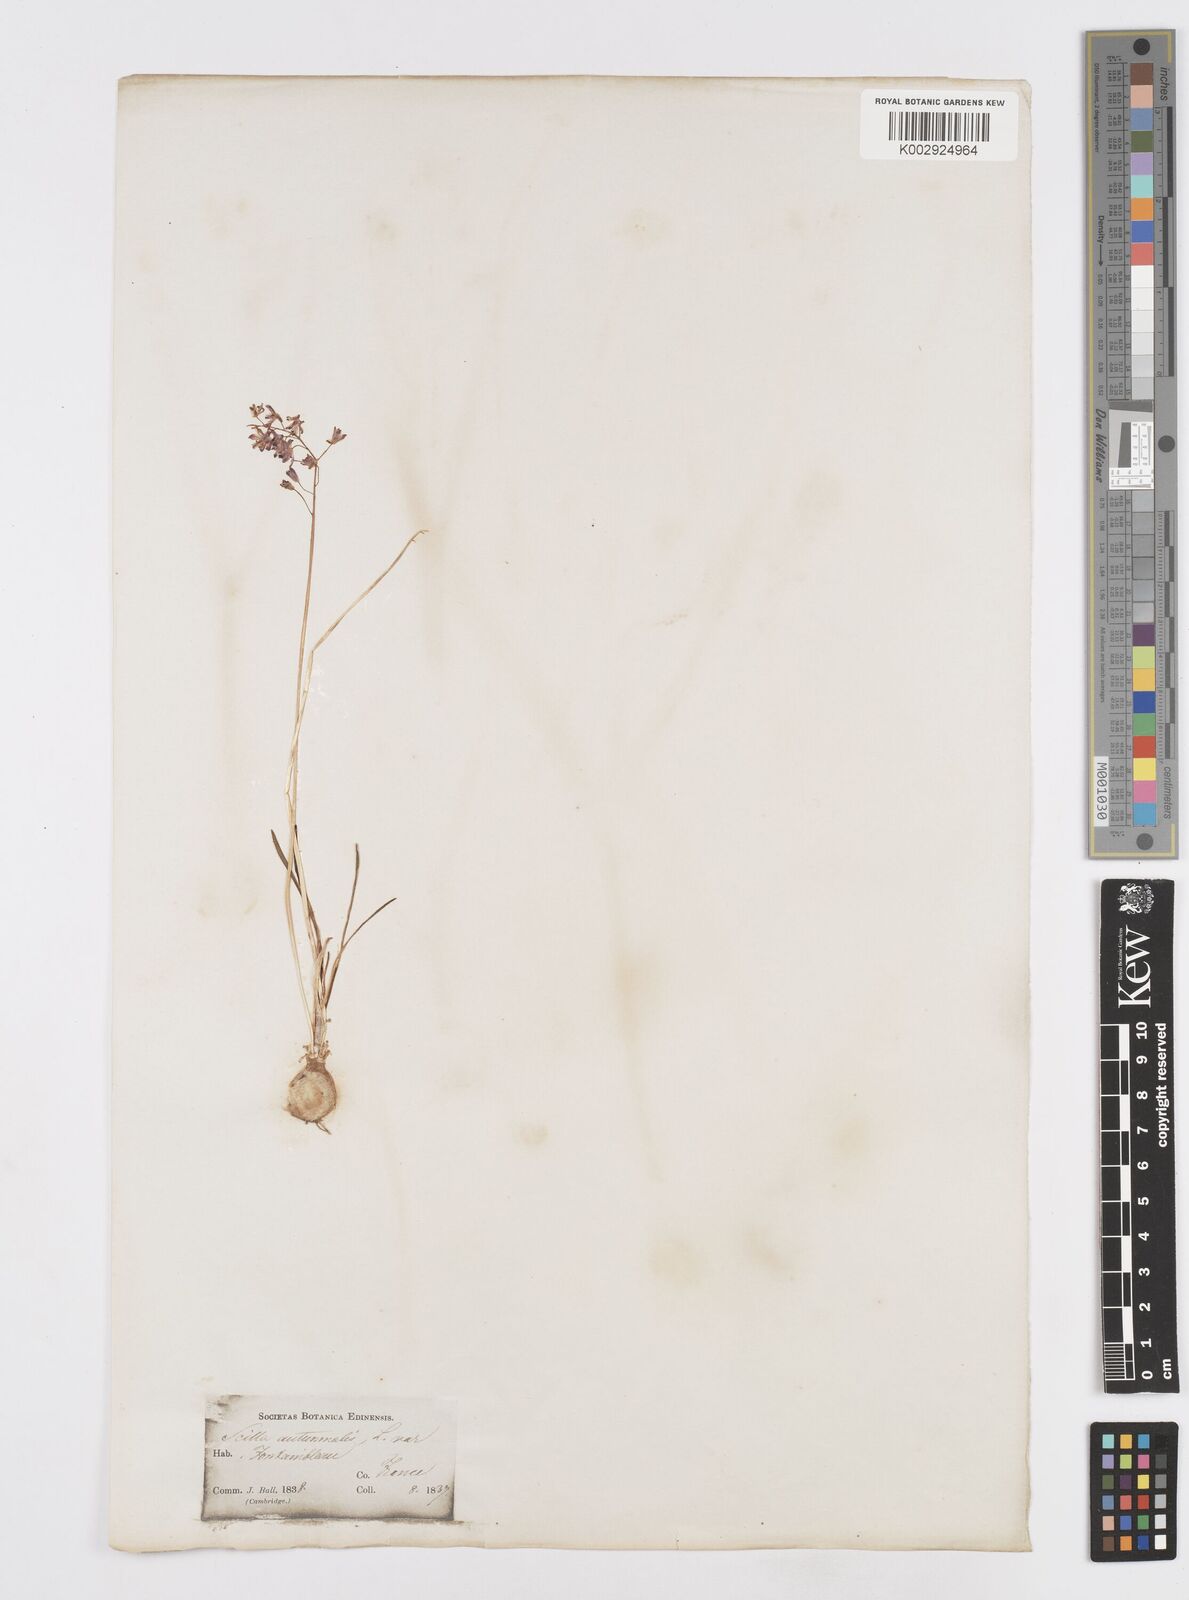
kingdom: Plantae
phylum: Tracheophyta
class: Liliopsida
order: Asparagales
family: Asparagaceae
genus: Prospero
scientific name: Prospero autumnale
